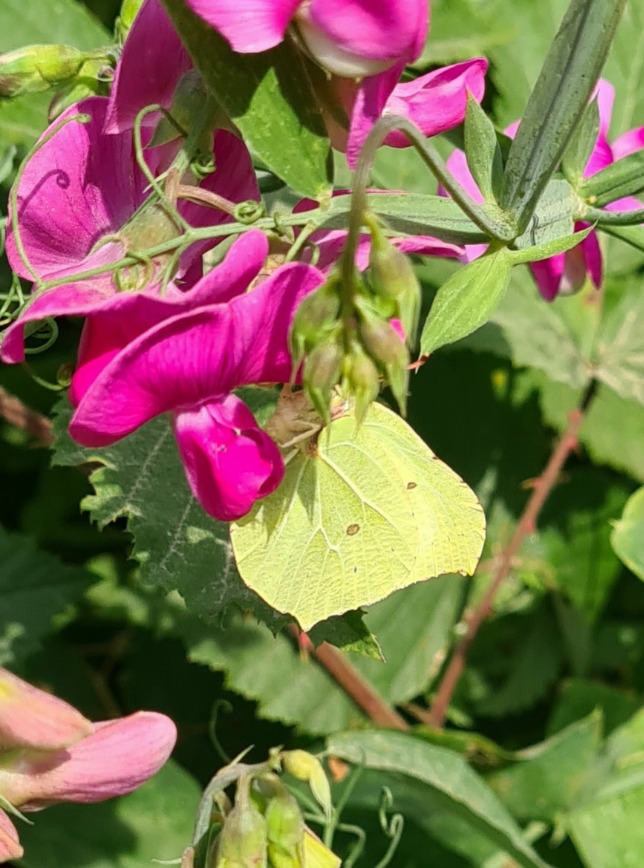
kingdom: Animalia
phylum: Arthropoda
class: Insecta
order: Lepidoptera
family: Pieridae
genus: Gonepteryx
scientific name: Gonepteryx rhamni
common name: Citronsommerfugl
